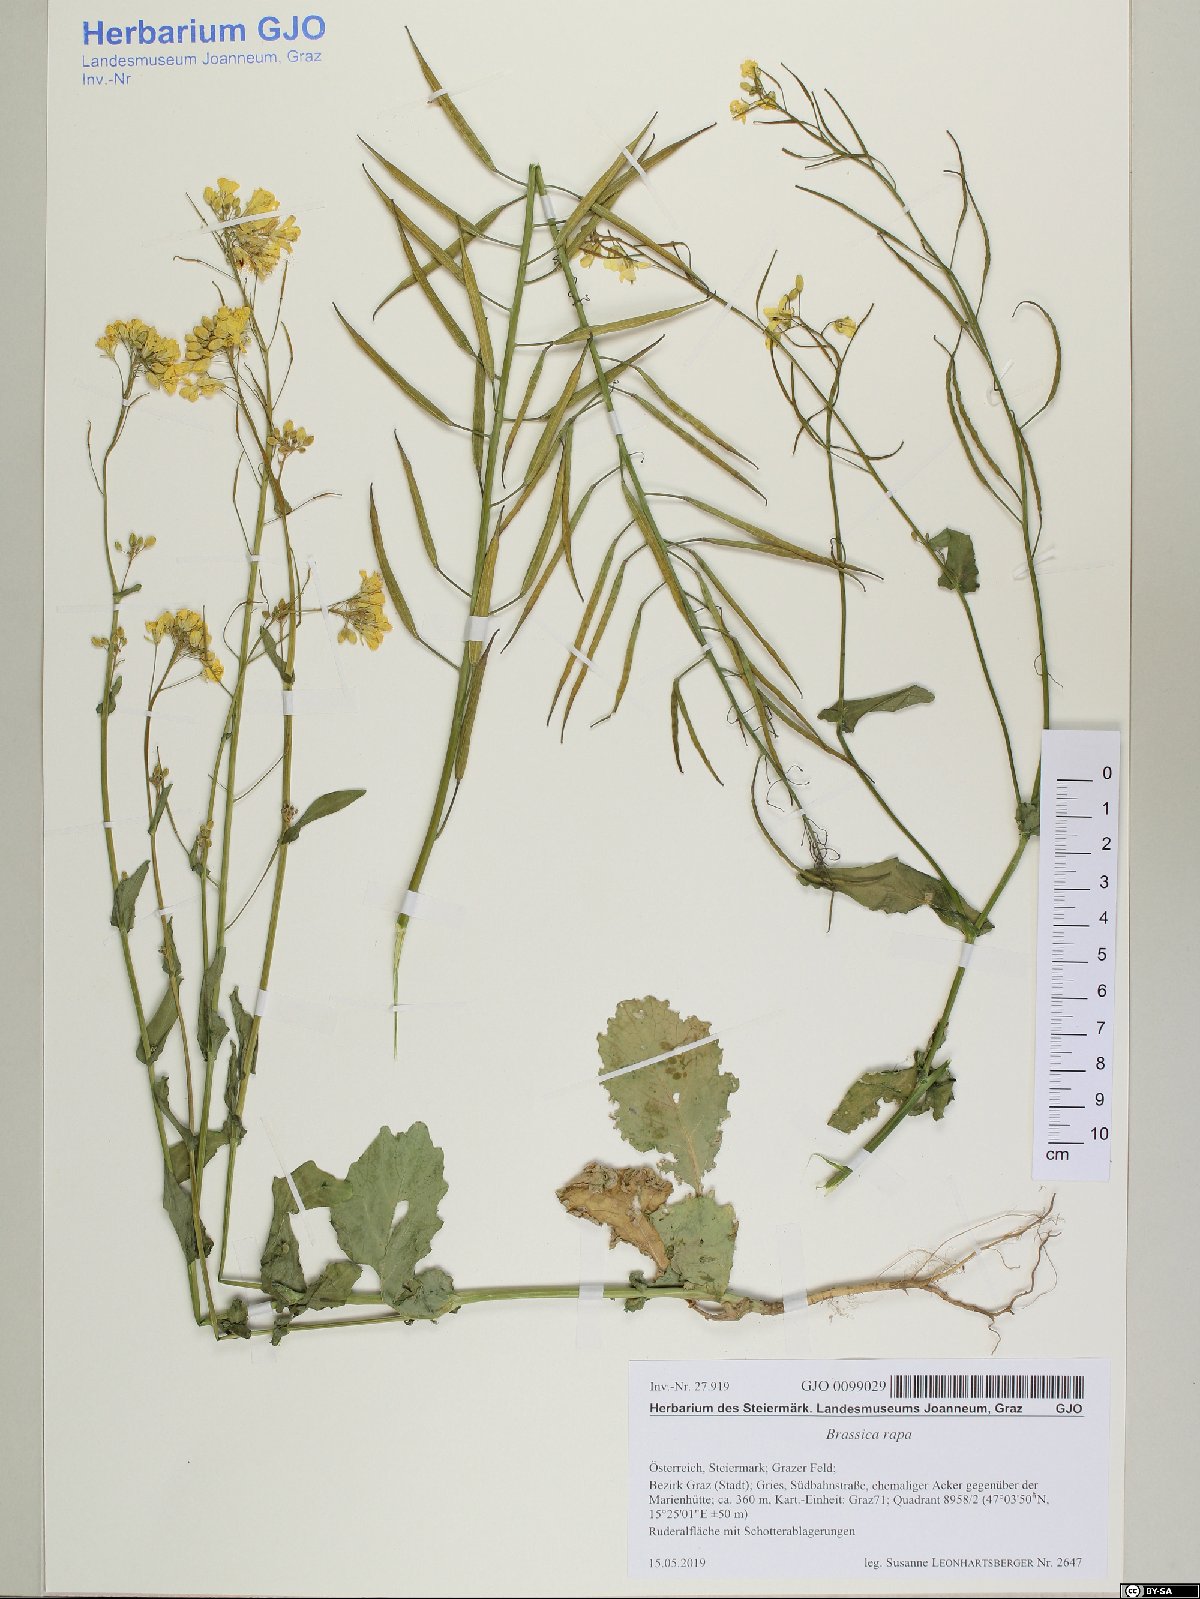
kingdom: Plantae
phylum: Tracheophyta
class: Magnoliopsida
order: Brassicales
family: Brassicaceae
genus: Brassica
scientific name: Brassica rapa
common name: Field mustard
